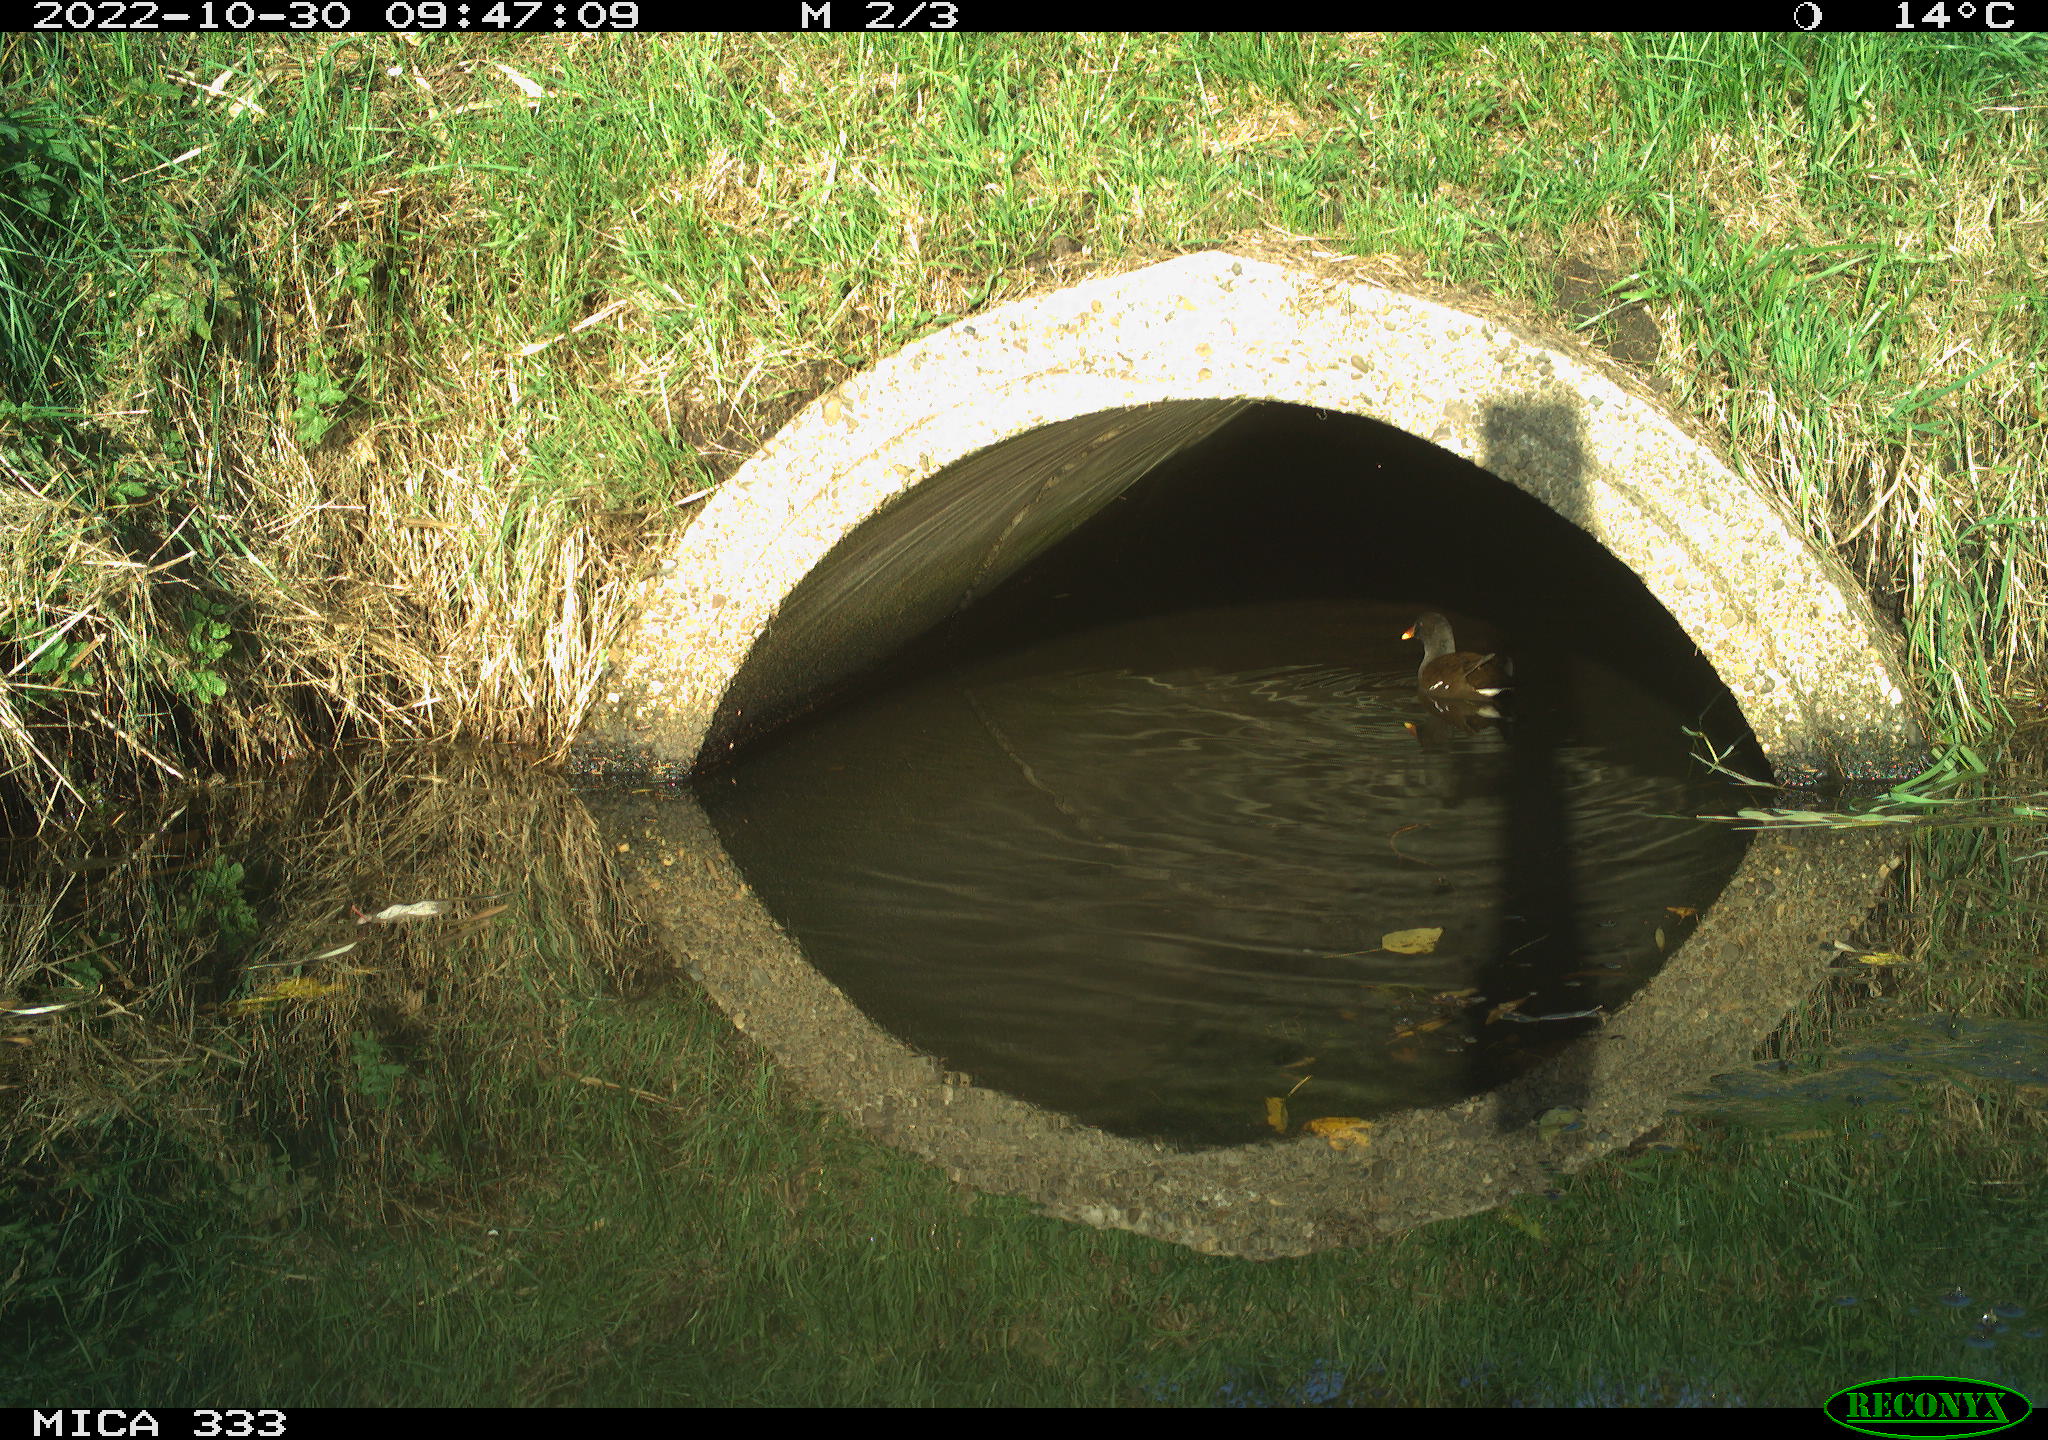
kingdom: Animalia
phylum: Chordata
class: Aves
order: Gruiformes
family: Rallidae
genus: Gallinula
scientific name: Gallinula chloropus
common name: Common moorhen
